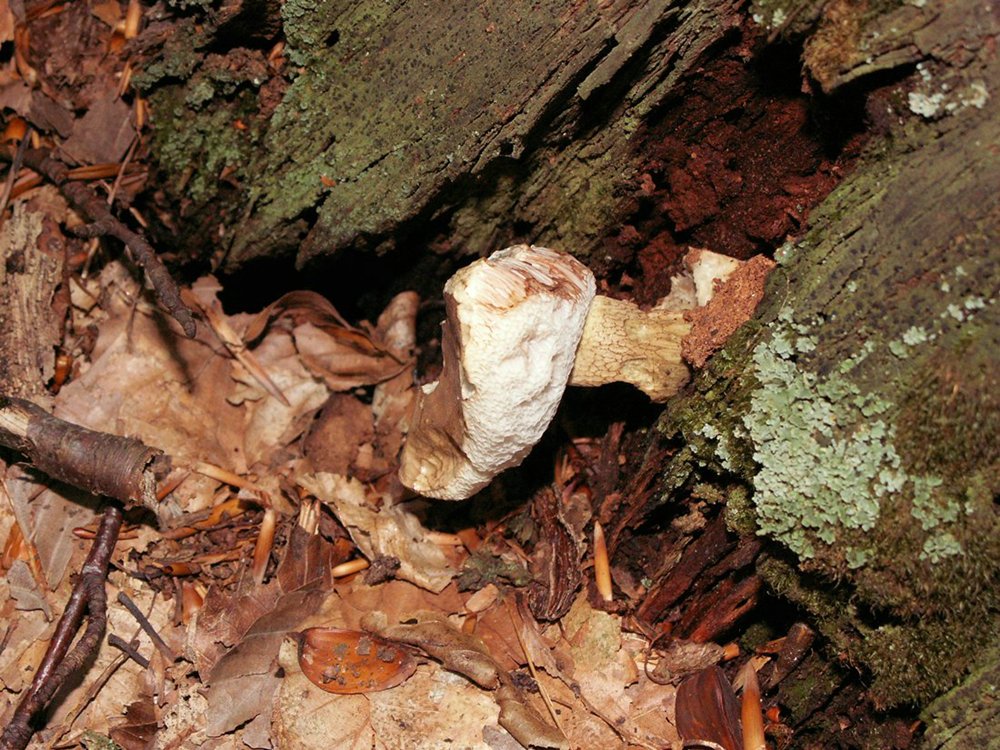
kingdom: Fungi
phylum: Basidiomycota
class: Agaricomycetes
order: Boletales
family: Boletaceae
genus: Tylopilus
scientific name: Tylopilus felleus
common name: galderørhat
